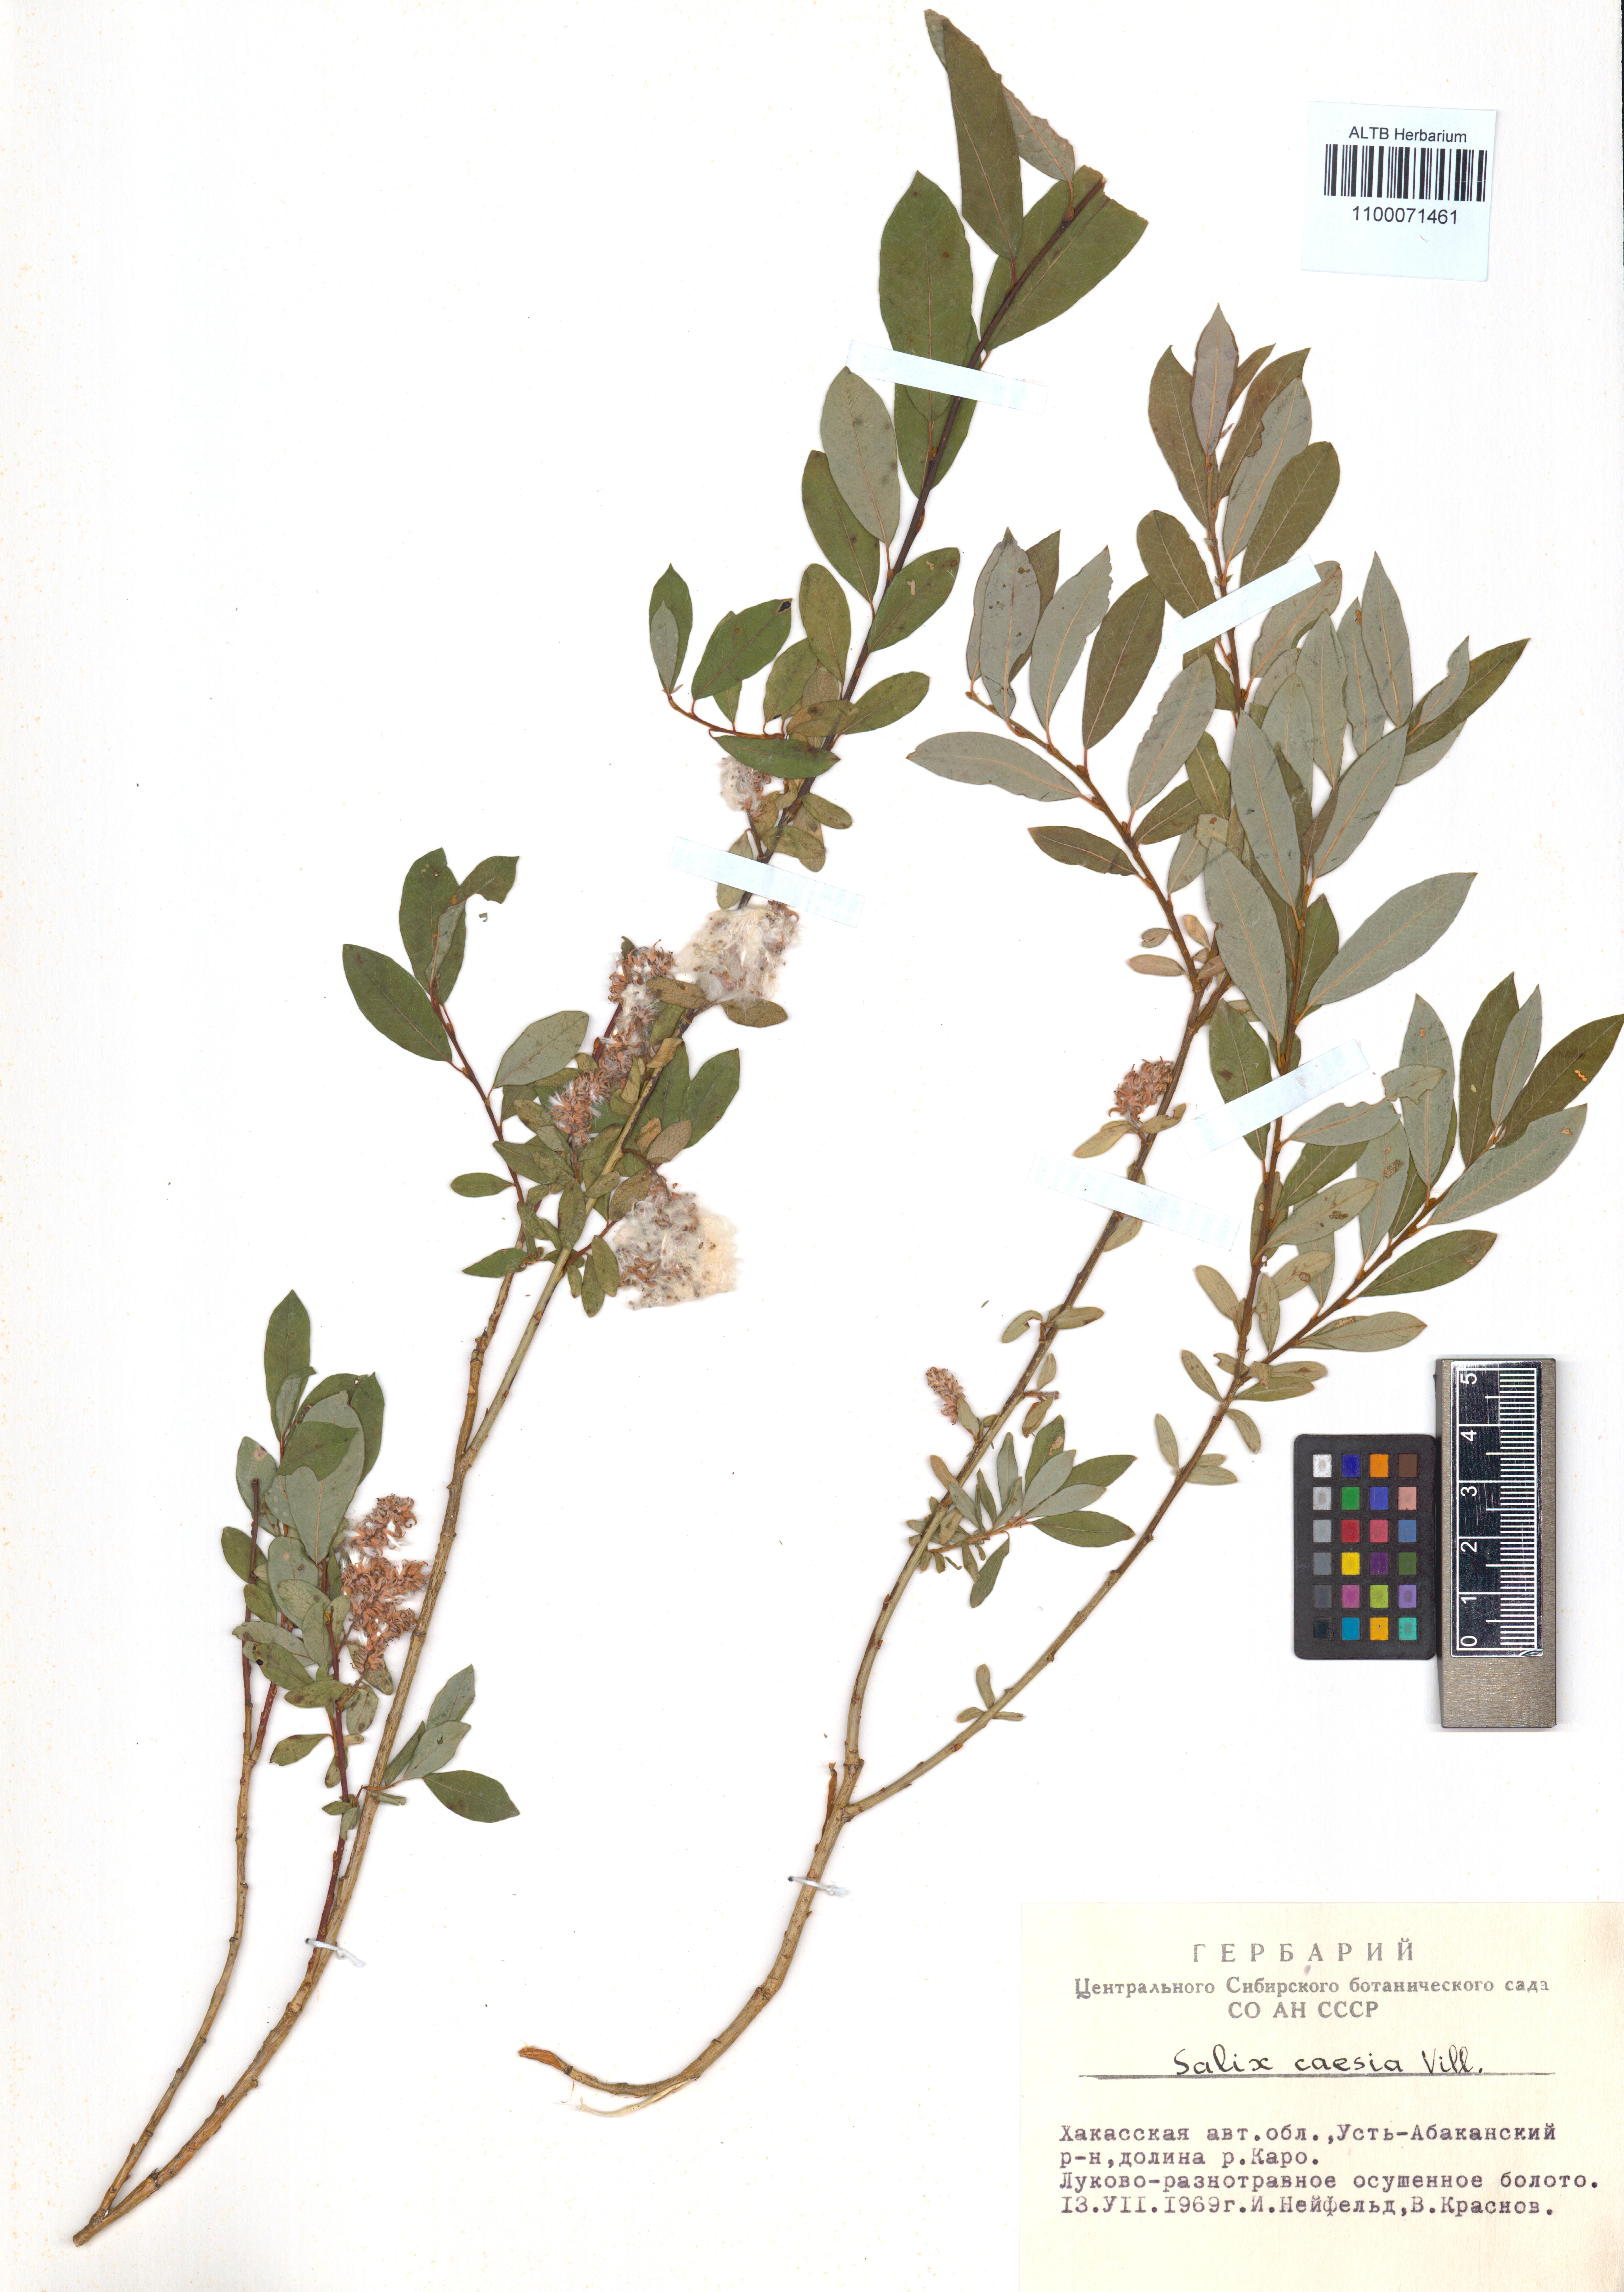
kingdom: Plantae
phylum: Tracheophyta
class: Magnoliopsida
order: Malpighiales
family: Salicaceae
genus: Salix
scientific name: Salix caesia
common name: Blue willow
